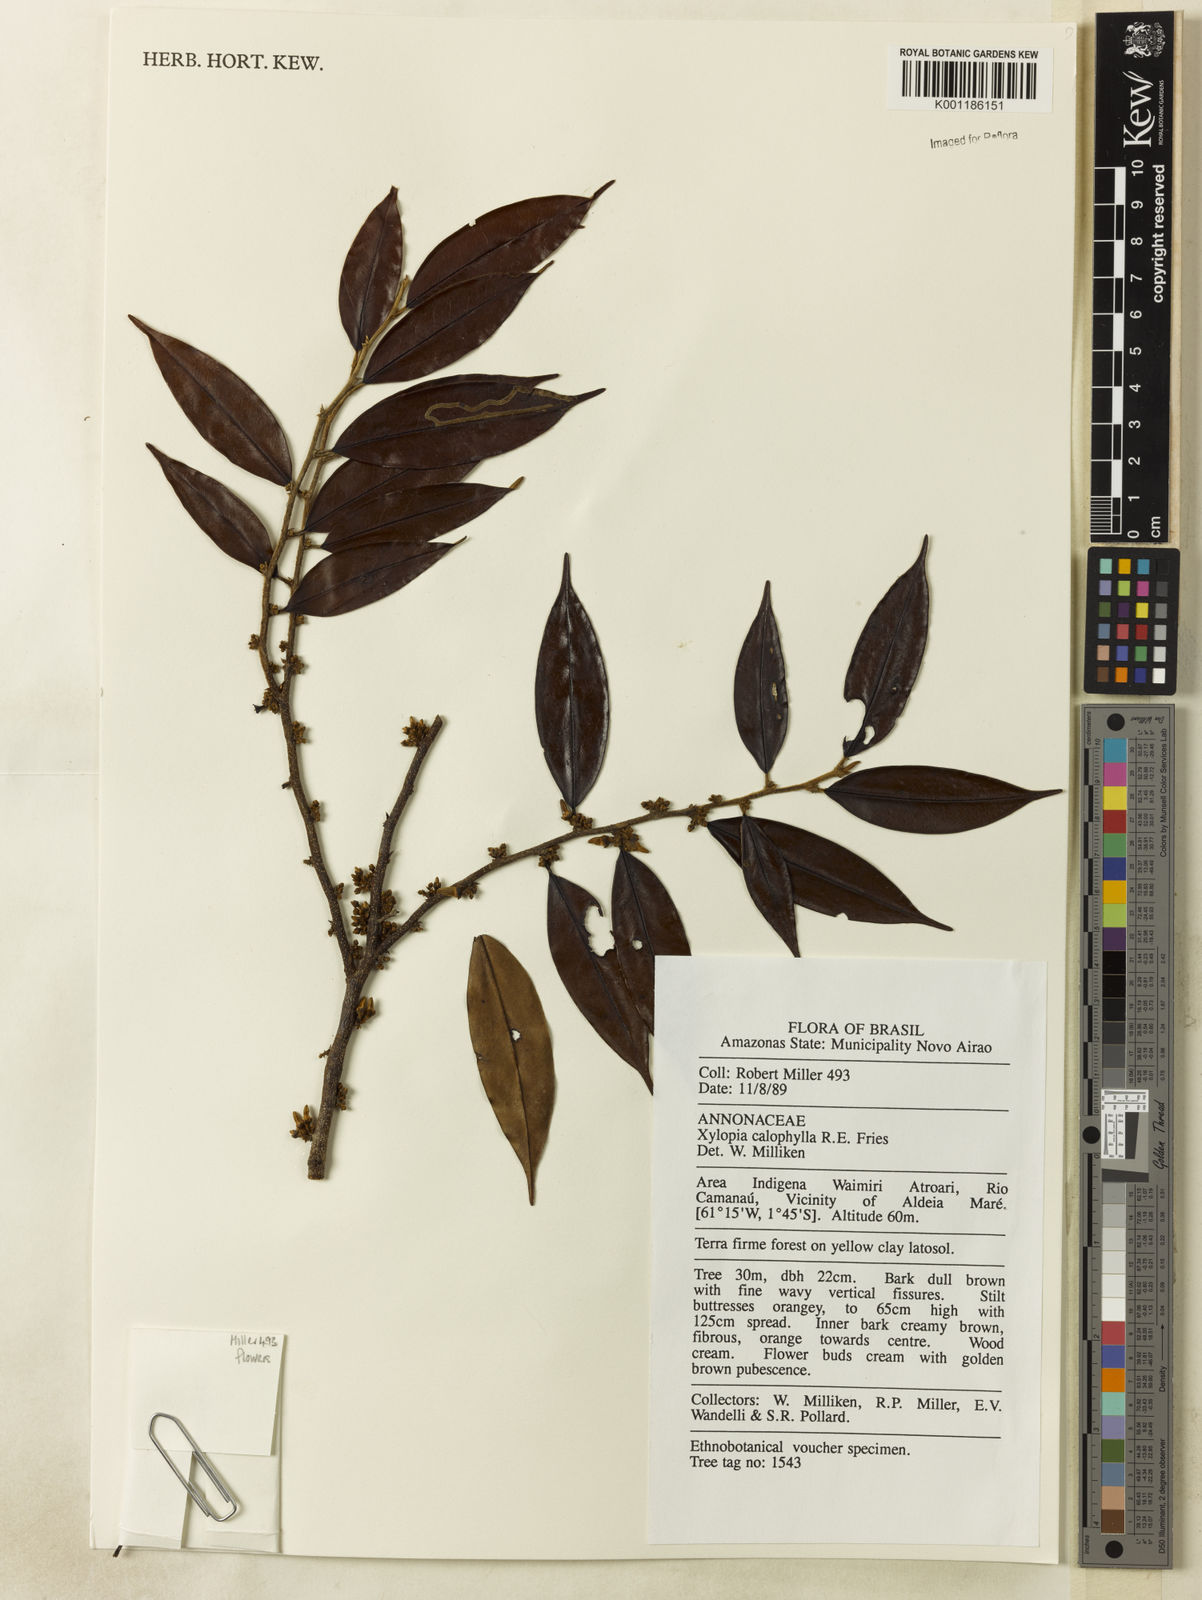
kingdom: Plantae
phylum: Tracheophyta
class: Magnoliopsida
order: Magnoliales
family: Annonaceae
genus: Xylopia
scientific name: Xylopia calophylla
